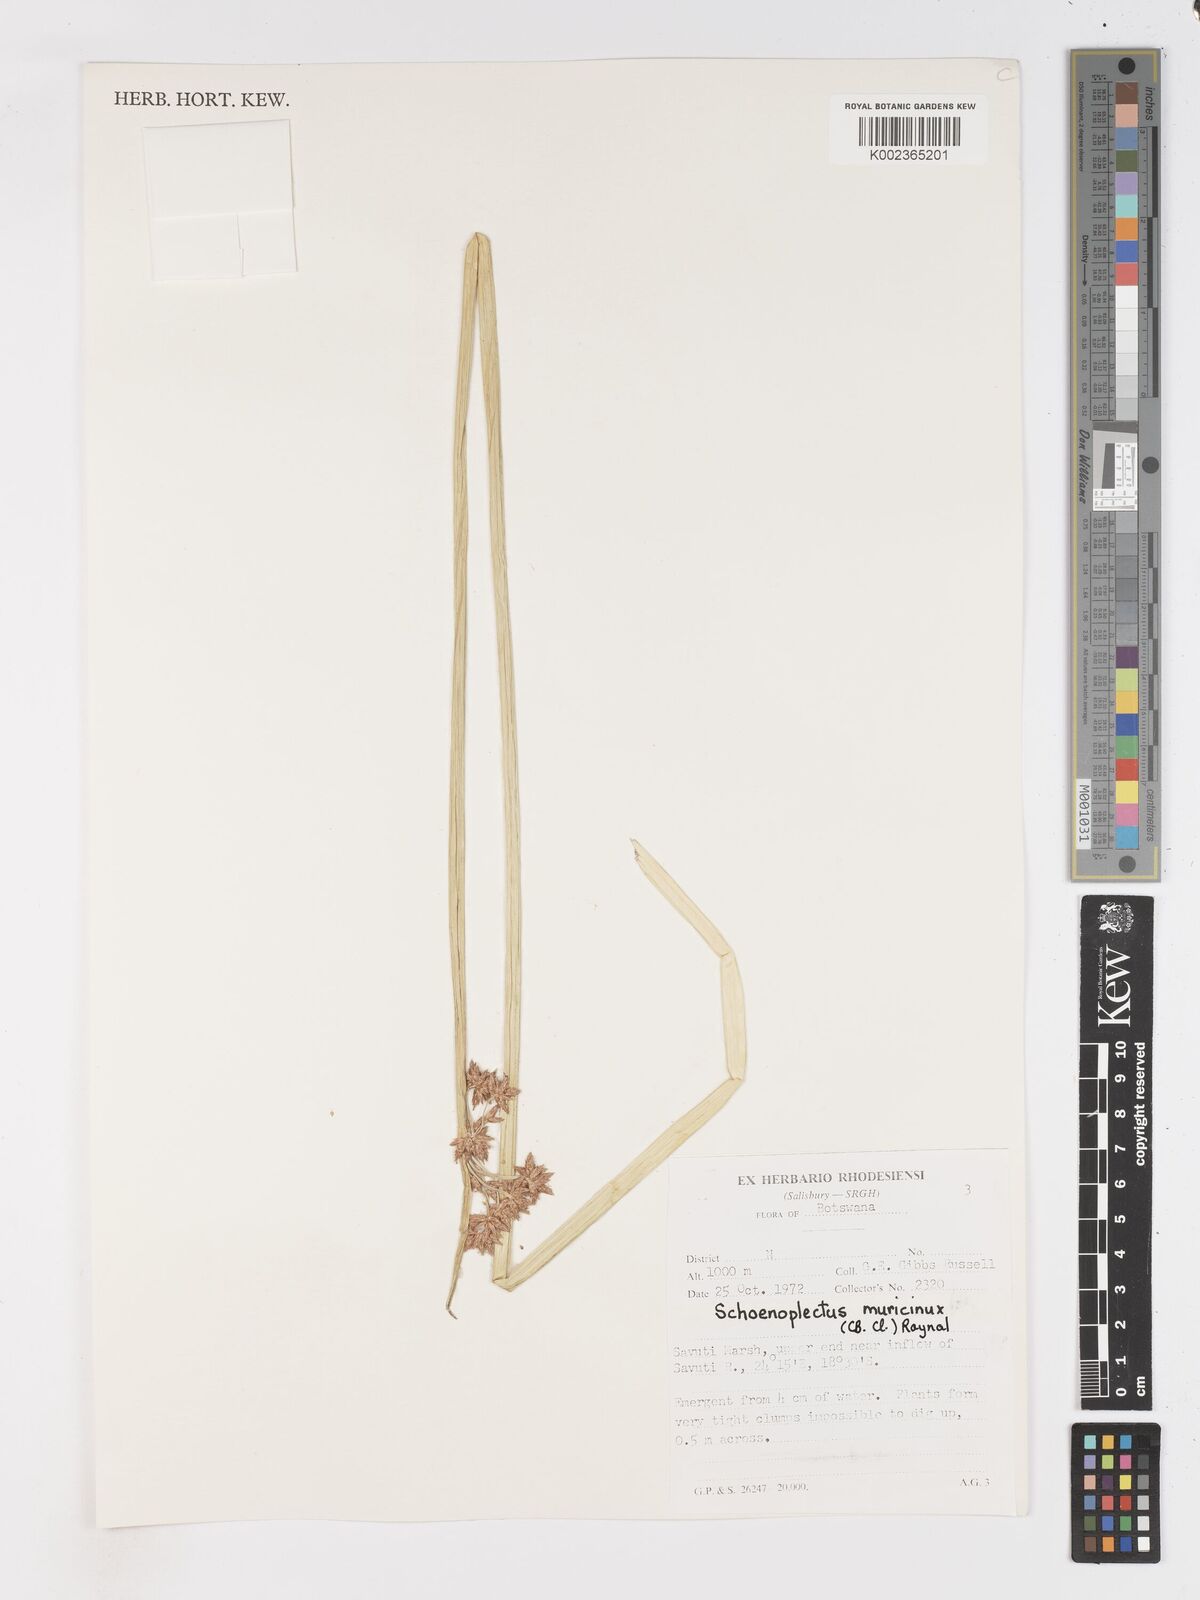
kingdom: Plantae
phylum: Tracheophyta
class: Liliopsida
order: Poales
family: Cyperaceae
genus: Schoenoplectiella
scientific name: Schoenoplectiella muricinux
